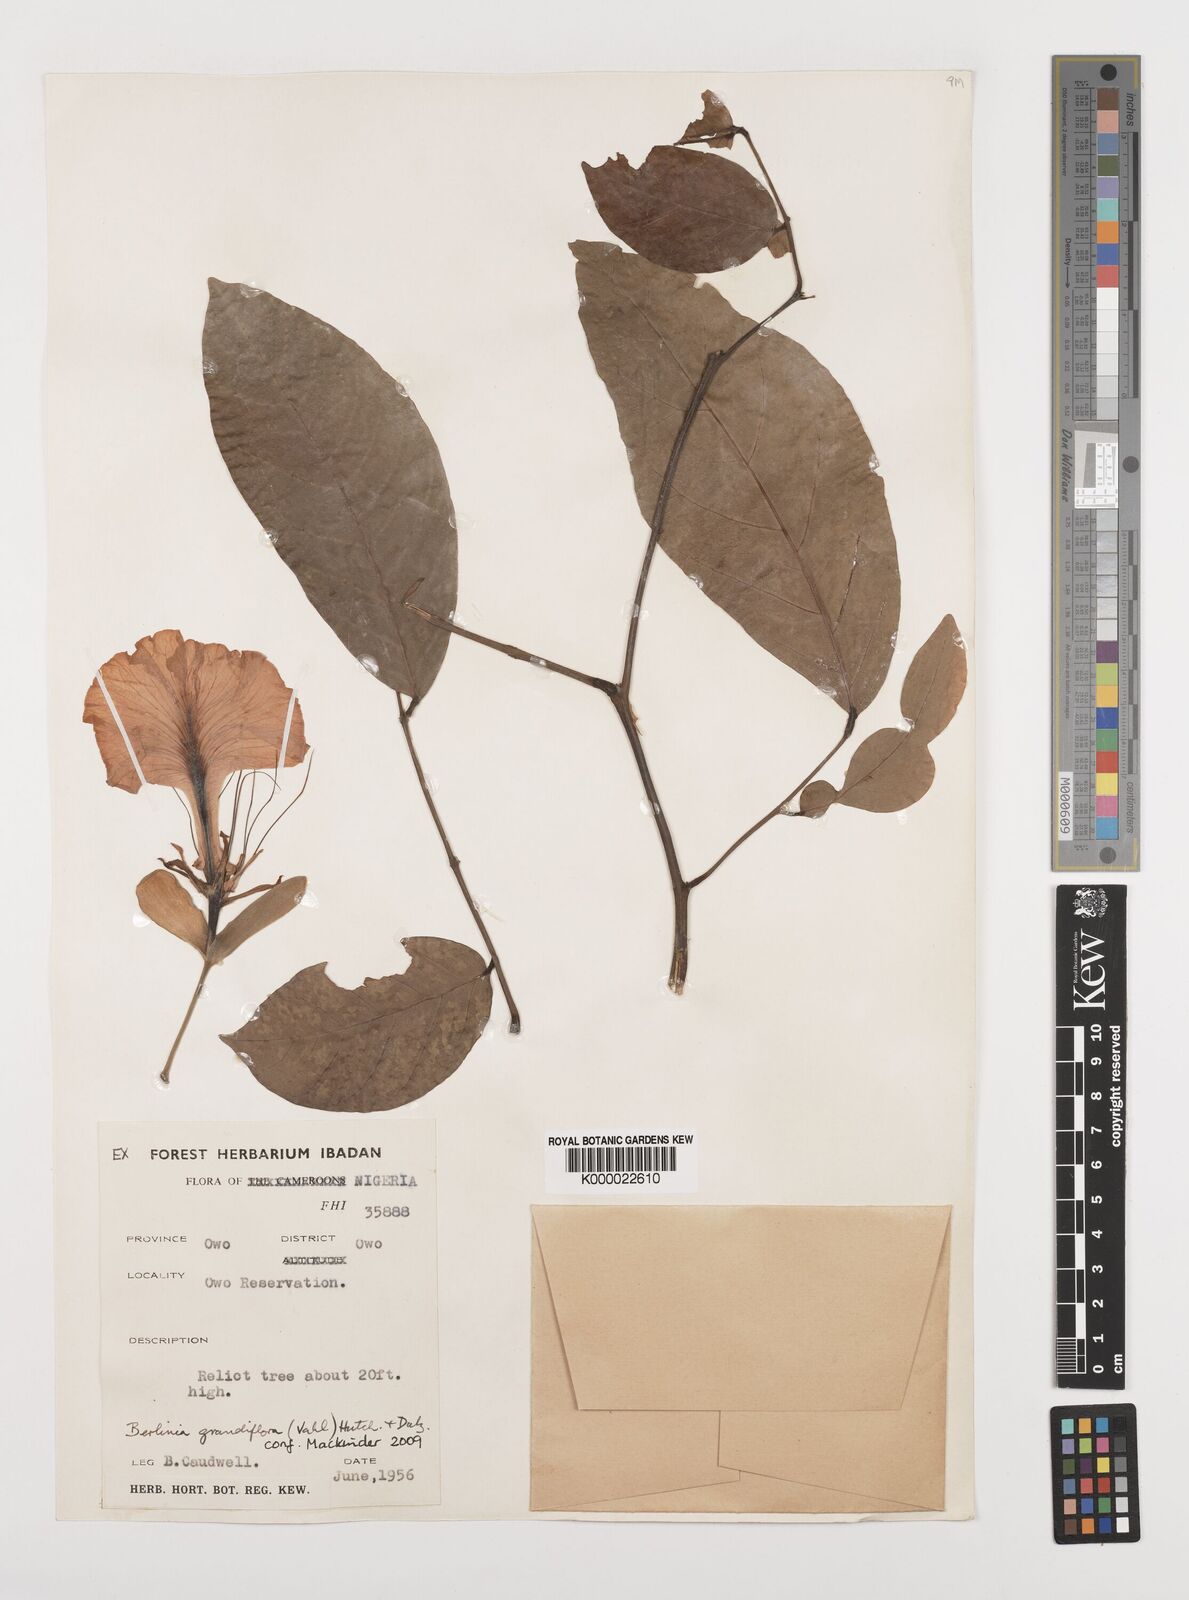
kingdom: Plantae
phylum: Tracheophyta
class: Magnoliopsida
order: Fabales
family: Fabaceae
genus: Berlinia
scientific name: Berlinia grandiflora
